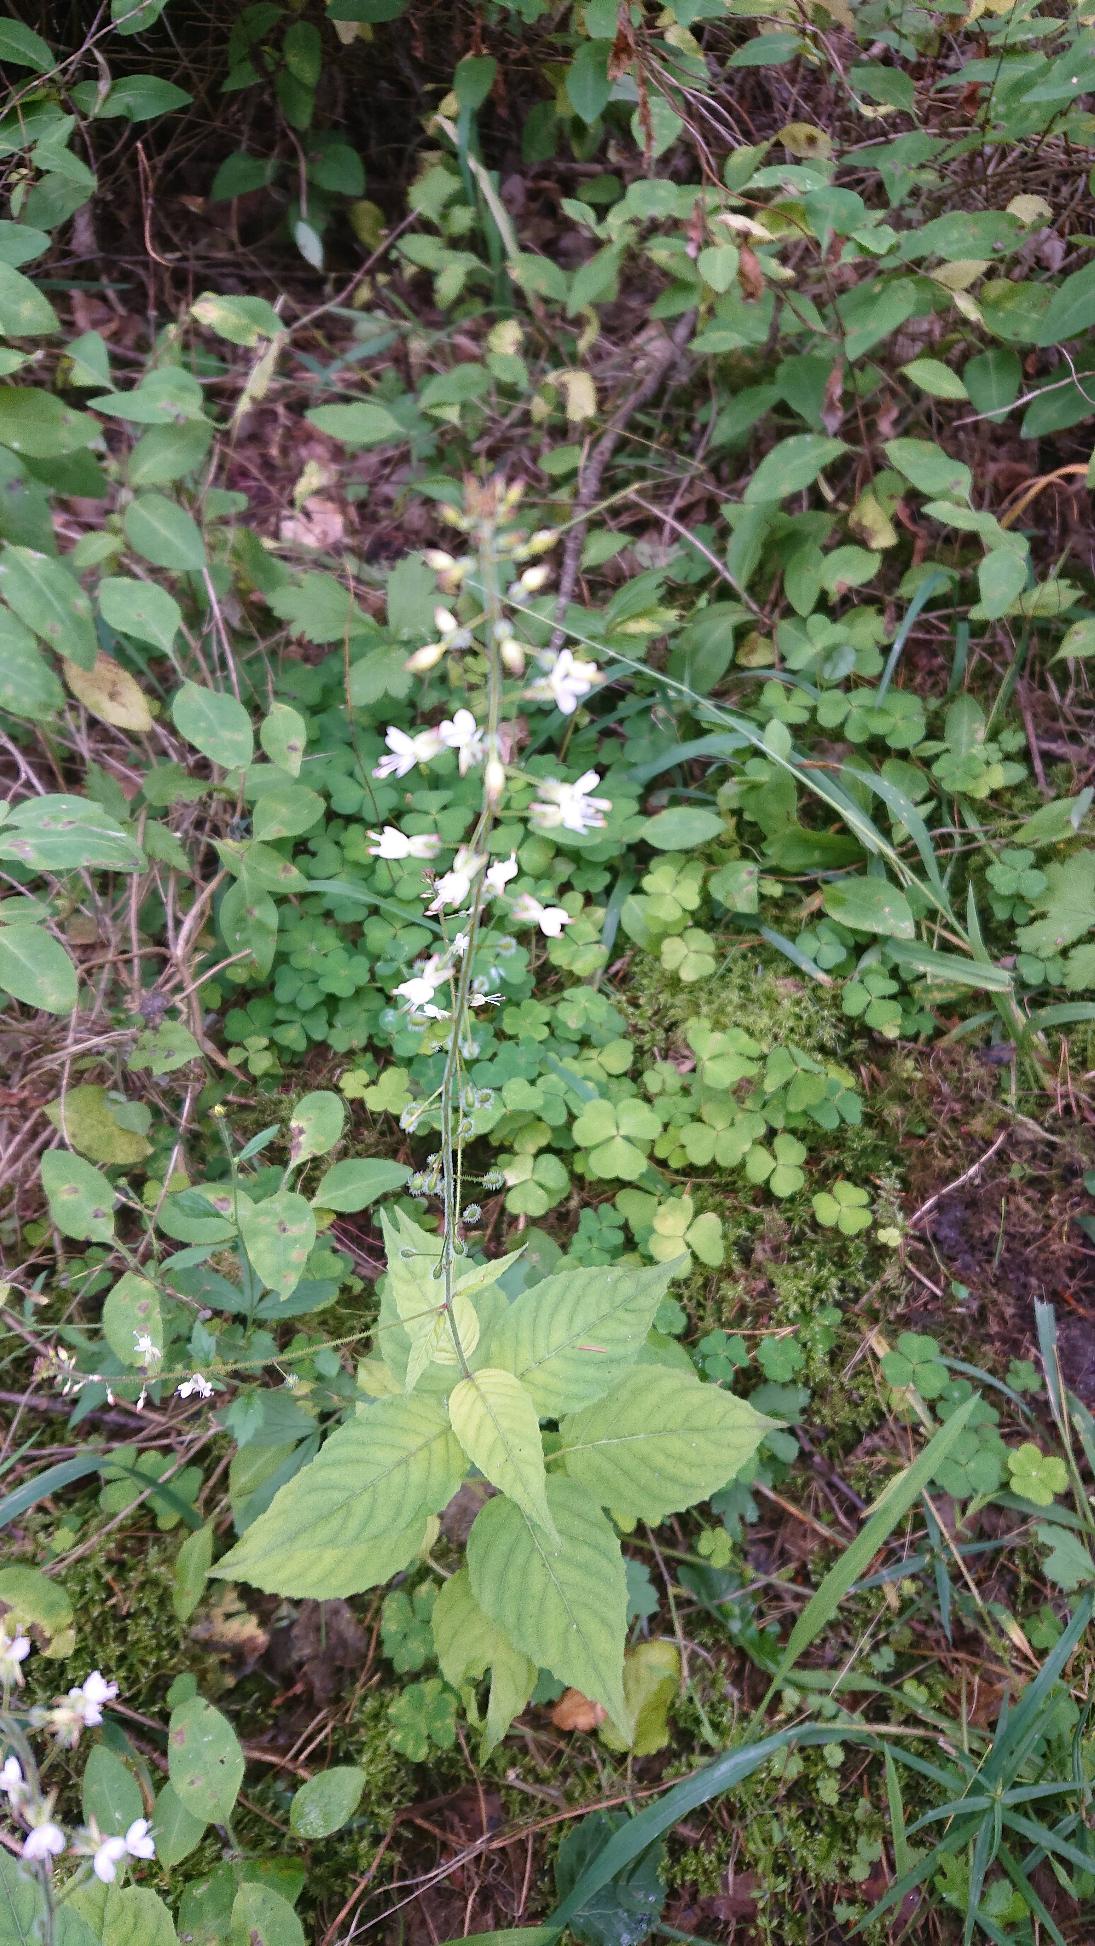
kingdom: Plantae
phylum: Tracheophyta
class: Magnoliopsida
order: Myrtales
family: Onagraceae
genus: Circaea
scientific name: Circaea lutetiana
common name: Dunet steffensurt
